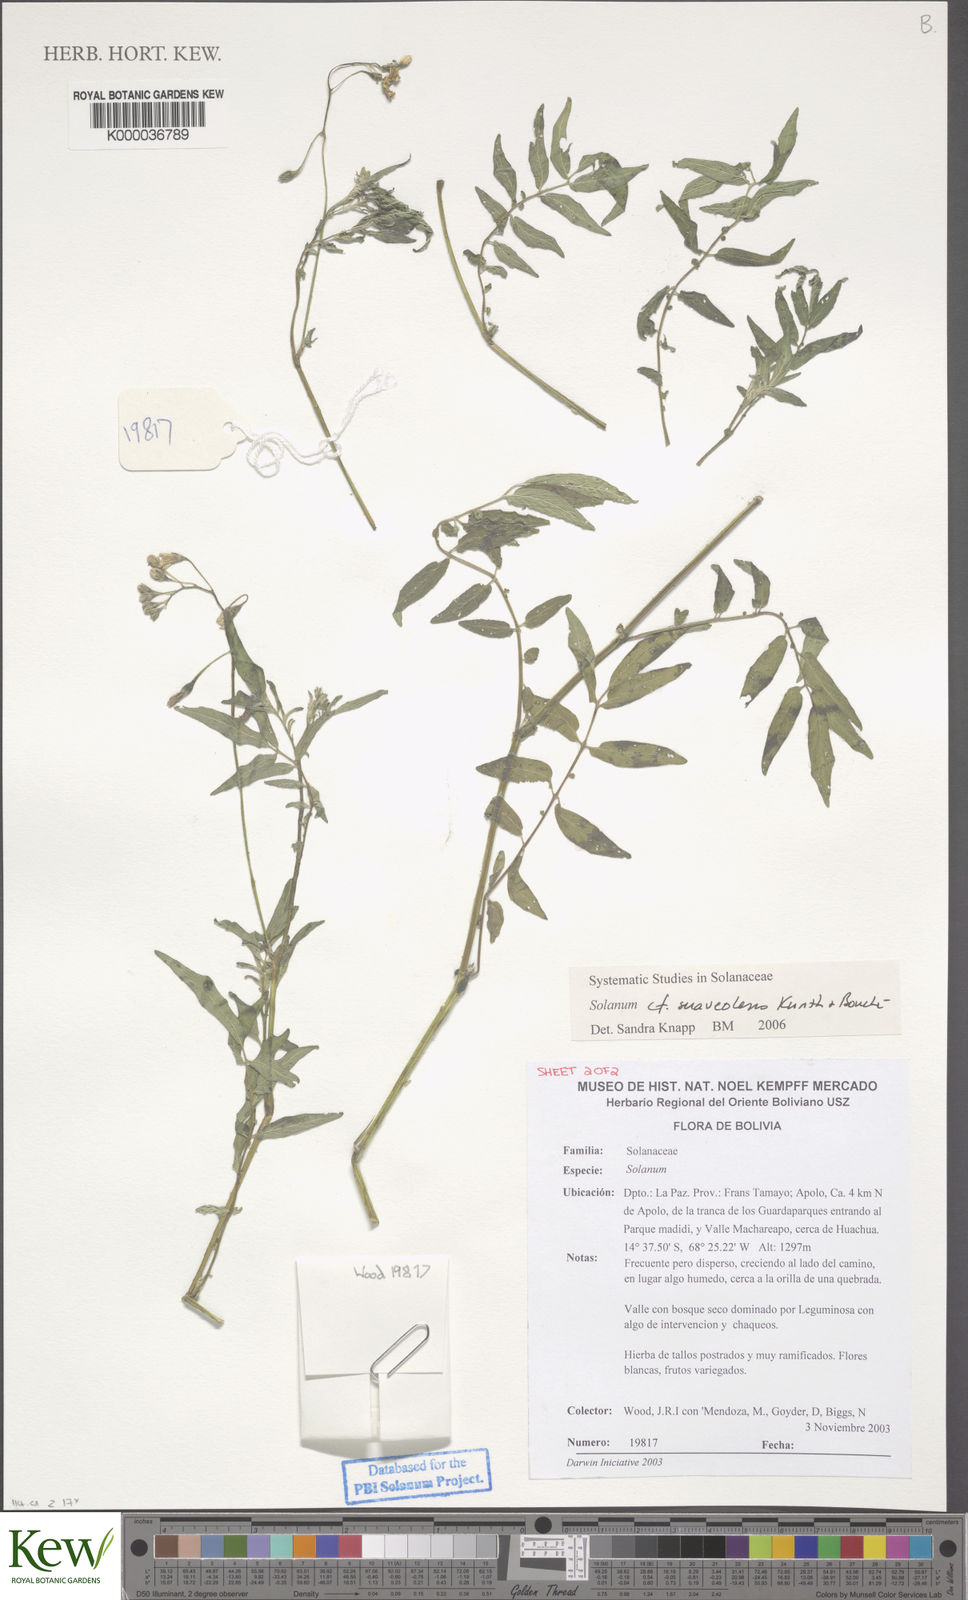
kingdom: Plantae
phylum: Tracheophyta
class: Magnoliopsida
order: Solanales
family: Solanaceae
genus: Solanum
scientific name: Solanum suaveolens
